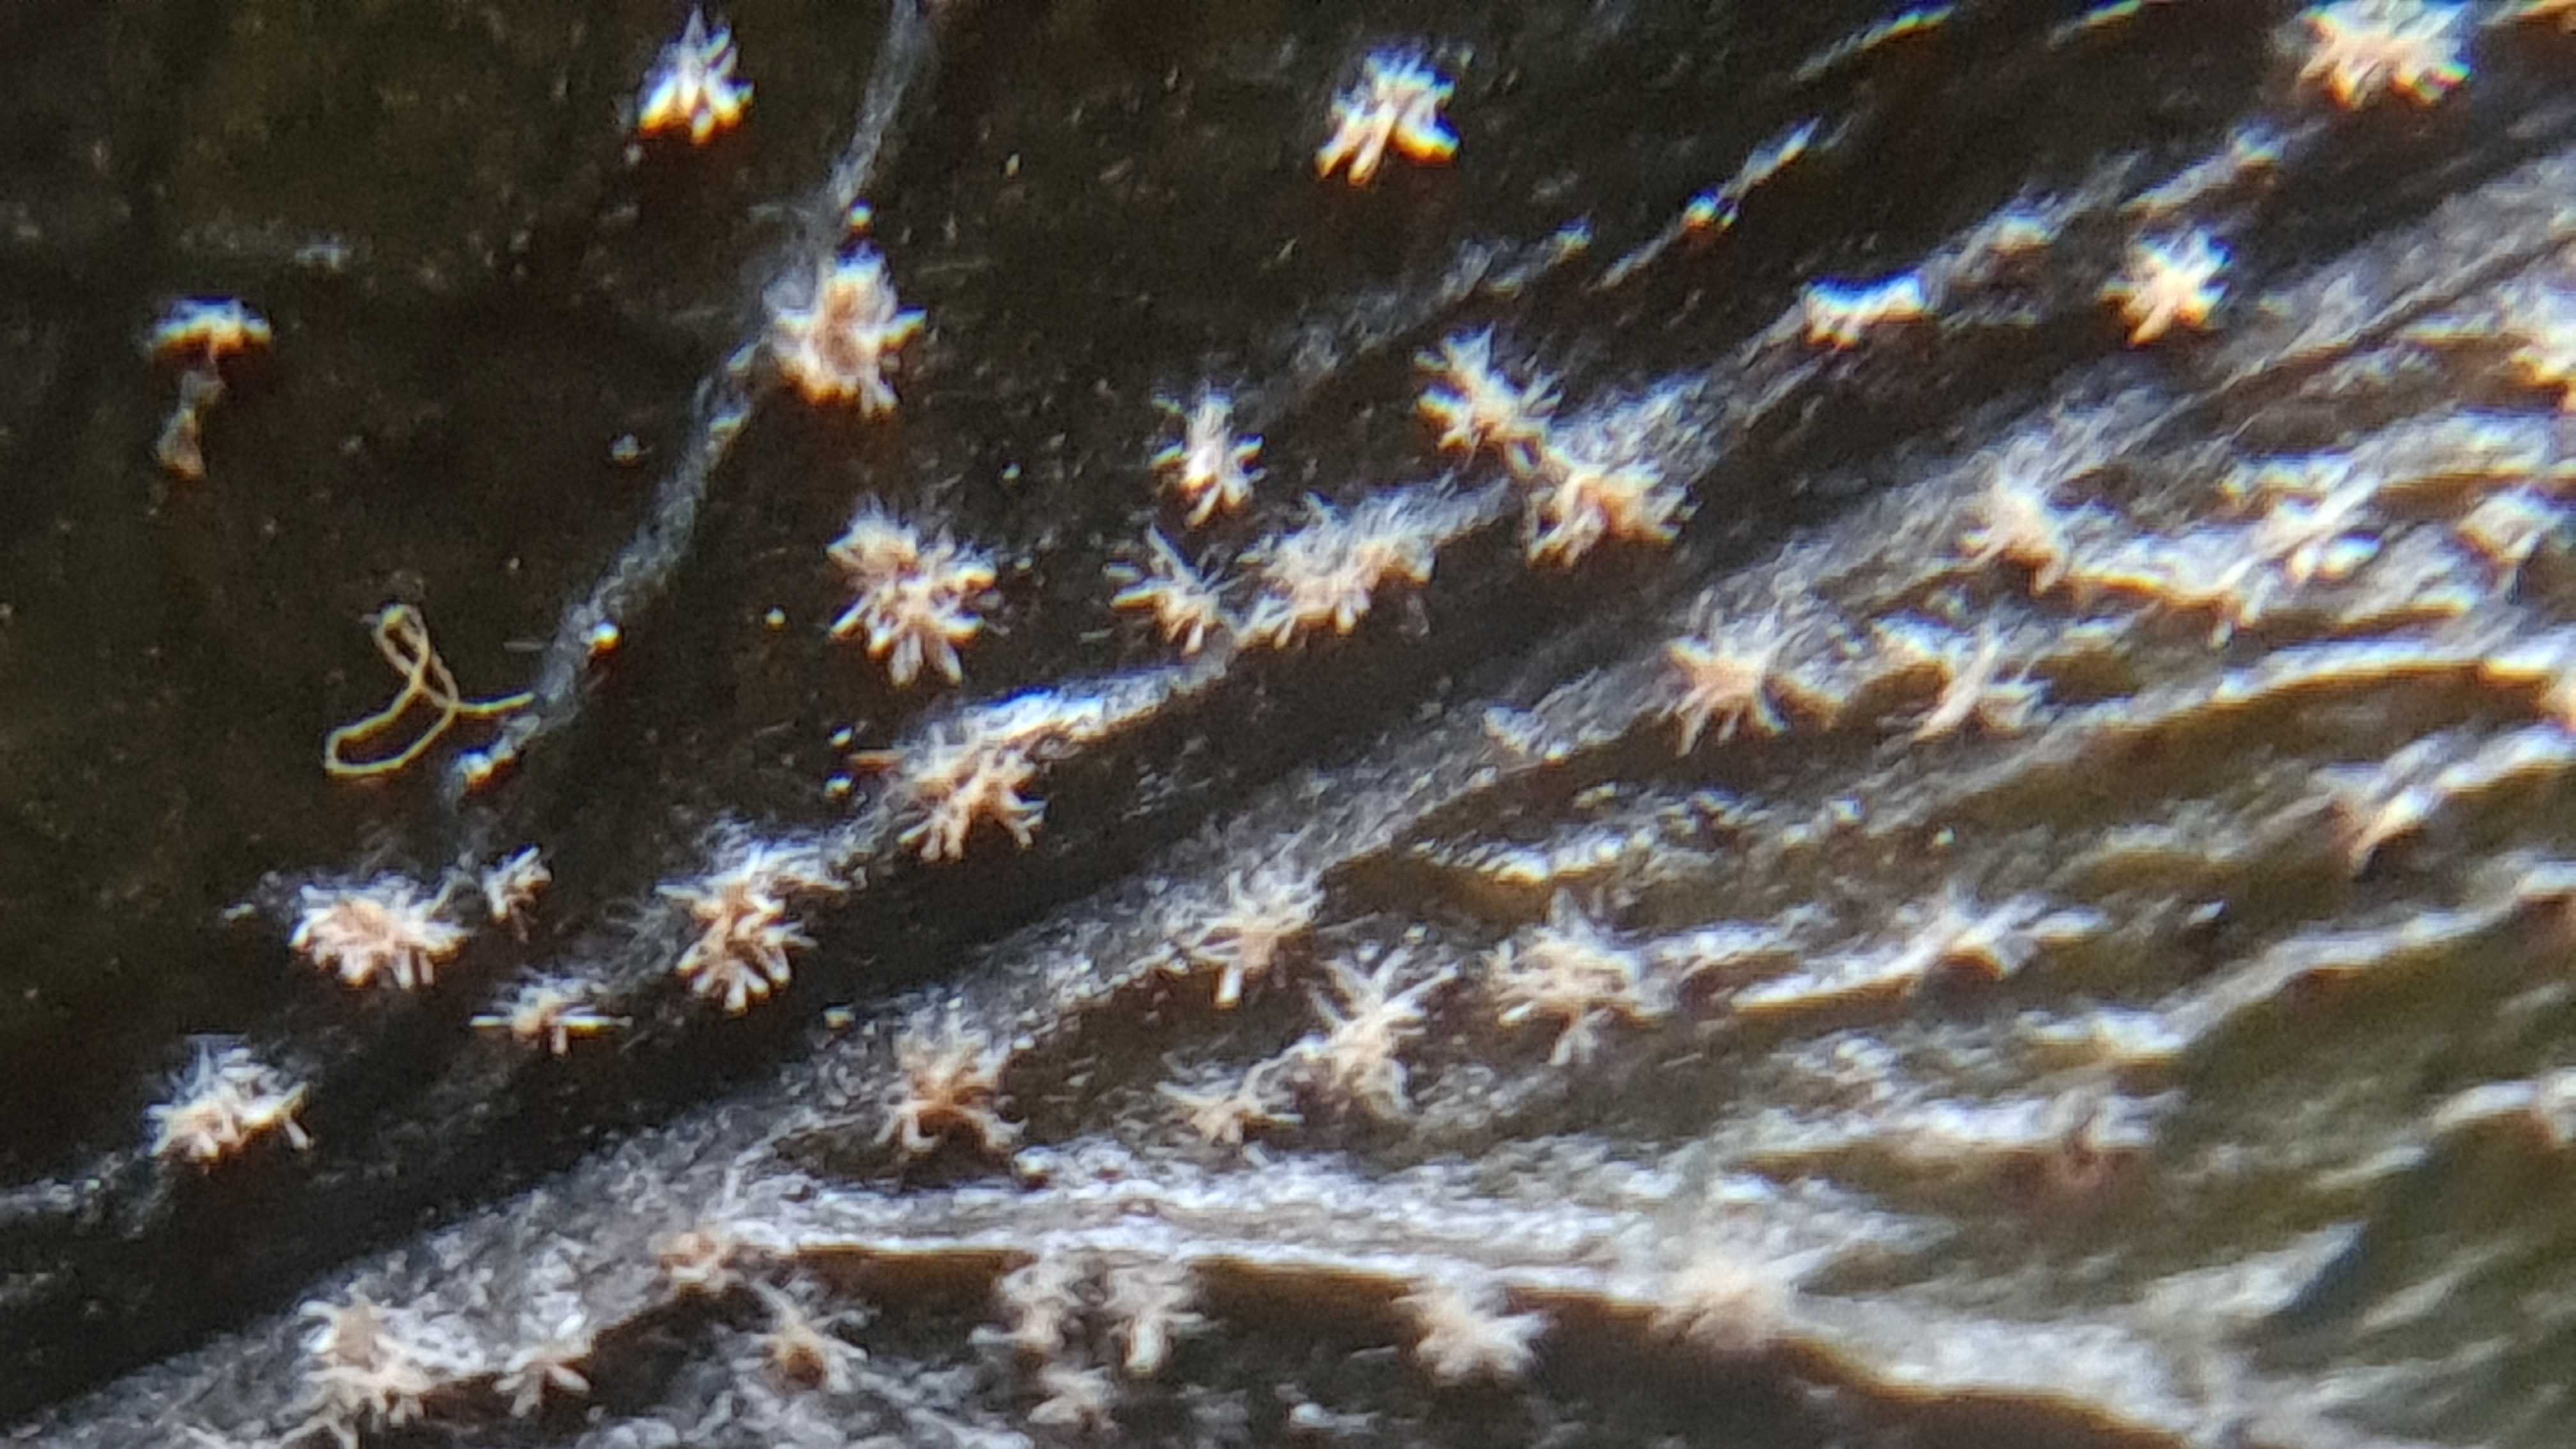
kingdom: Fungi
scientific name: Fungi
